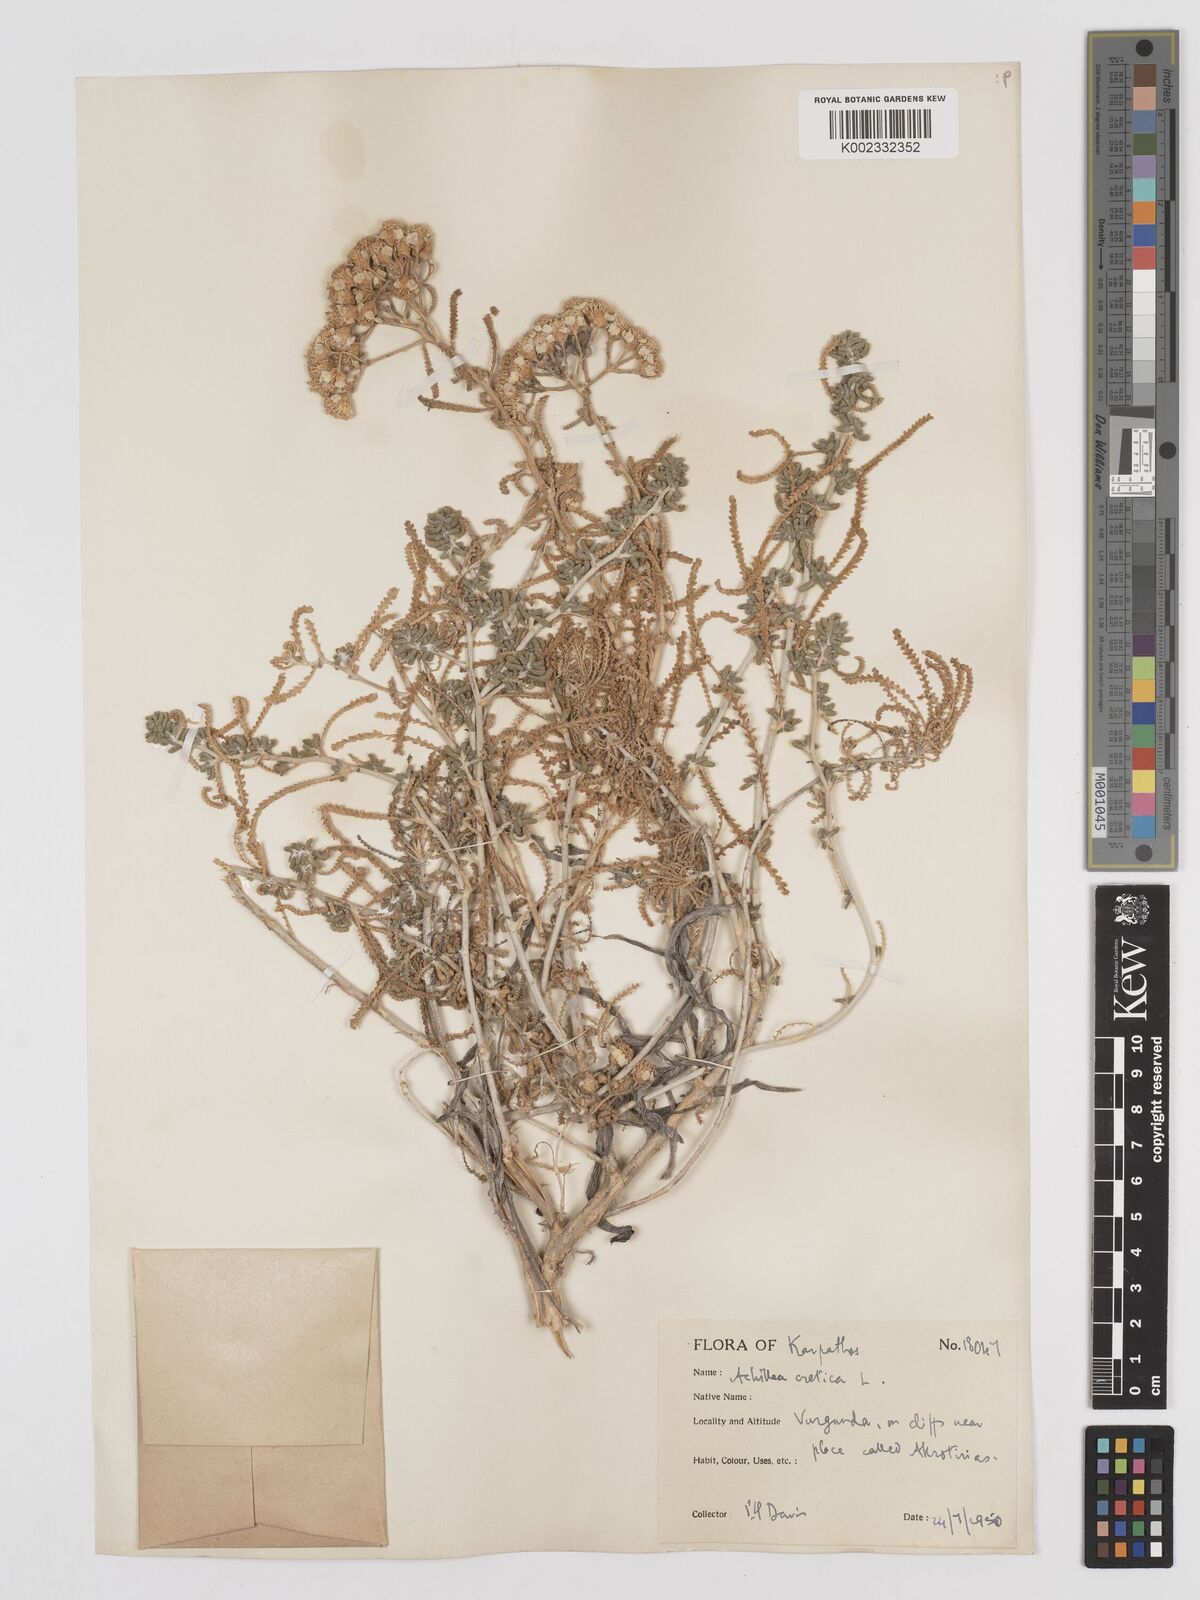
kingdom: Plantae
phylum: Tracheophyta
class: Magnoliopsida
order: Asterales
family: Asteraceae
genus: Achillea
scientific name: Achillea cretica
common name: Chamomile-leaved lavender-cotton
